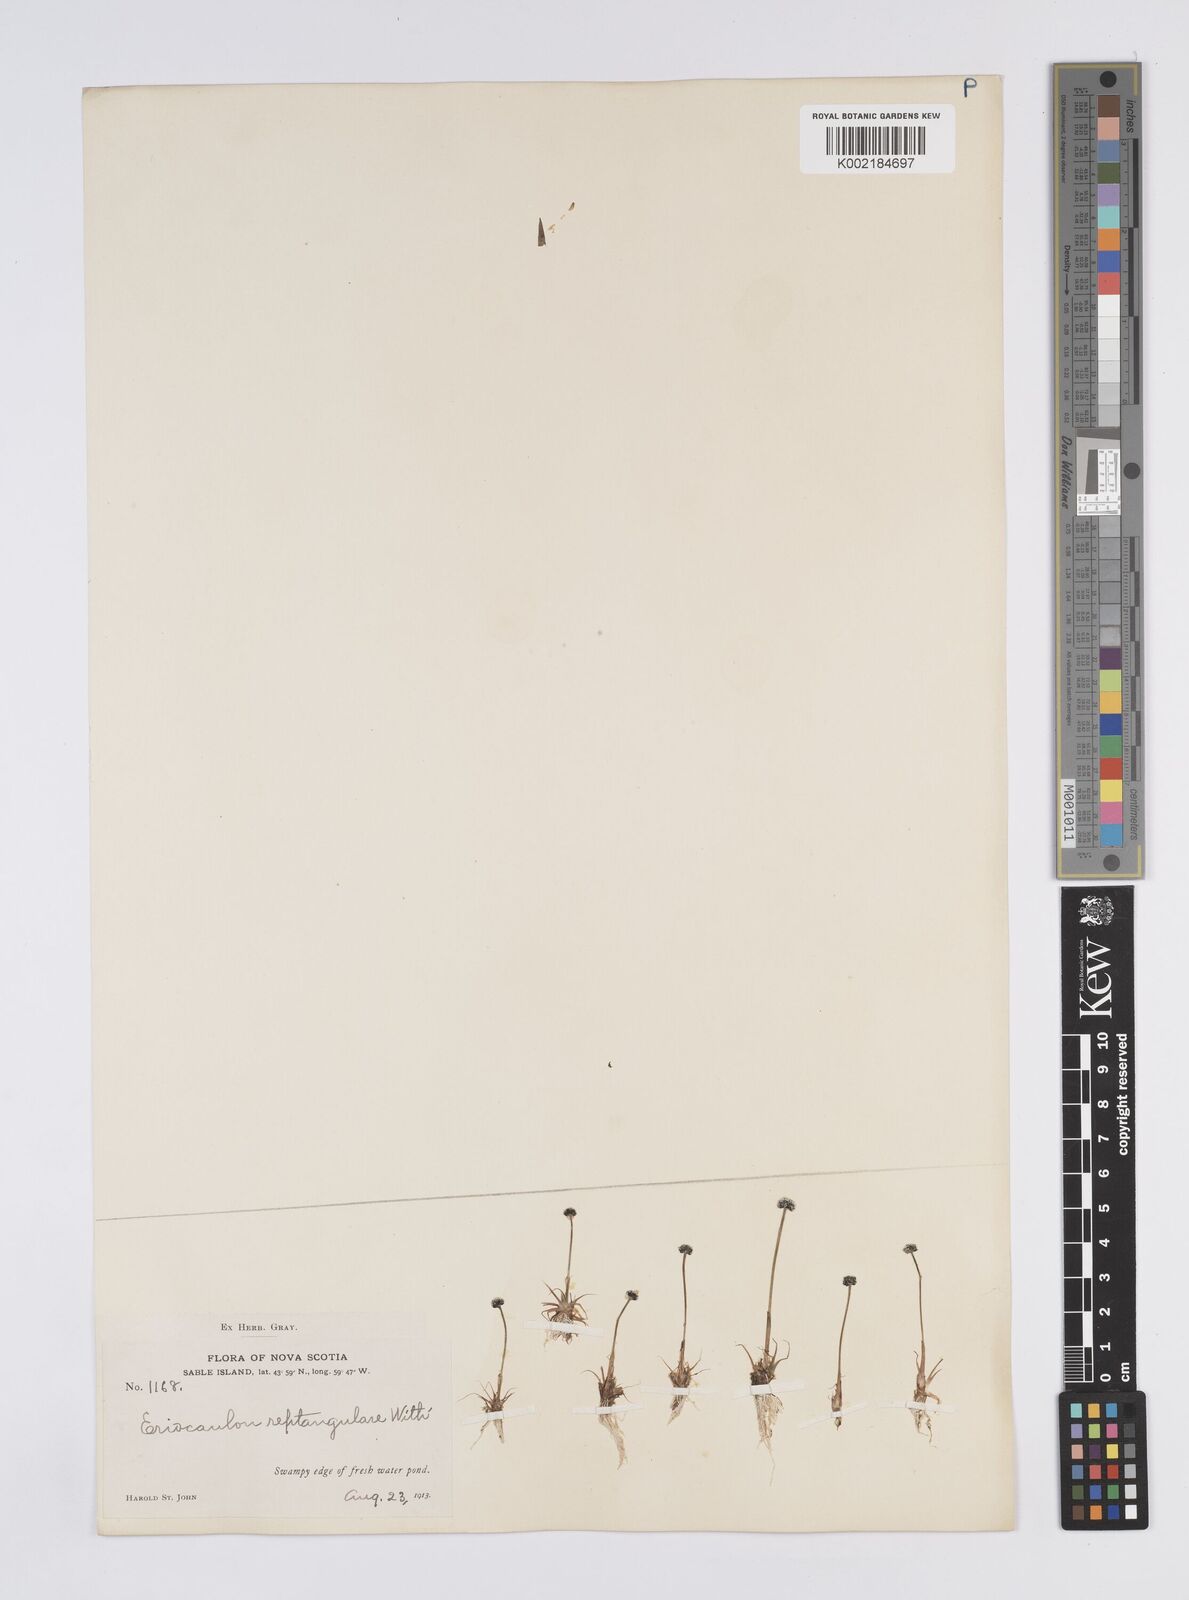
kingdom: Plantae
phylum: Tracheophyta
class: Liliopsida
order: Poales
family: Eriocaulaceae
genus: Eriocaulon
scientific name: Eriocaulon aquaticum
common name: Pipewort
